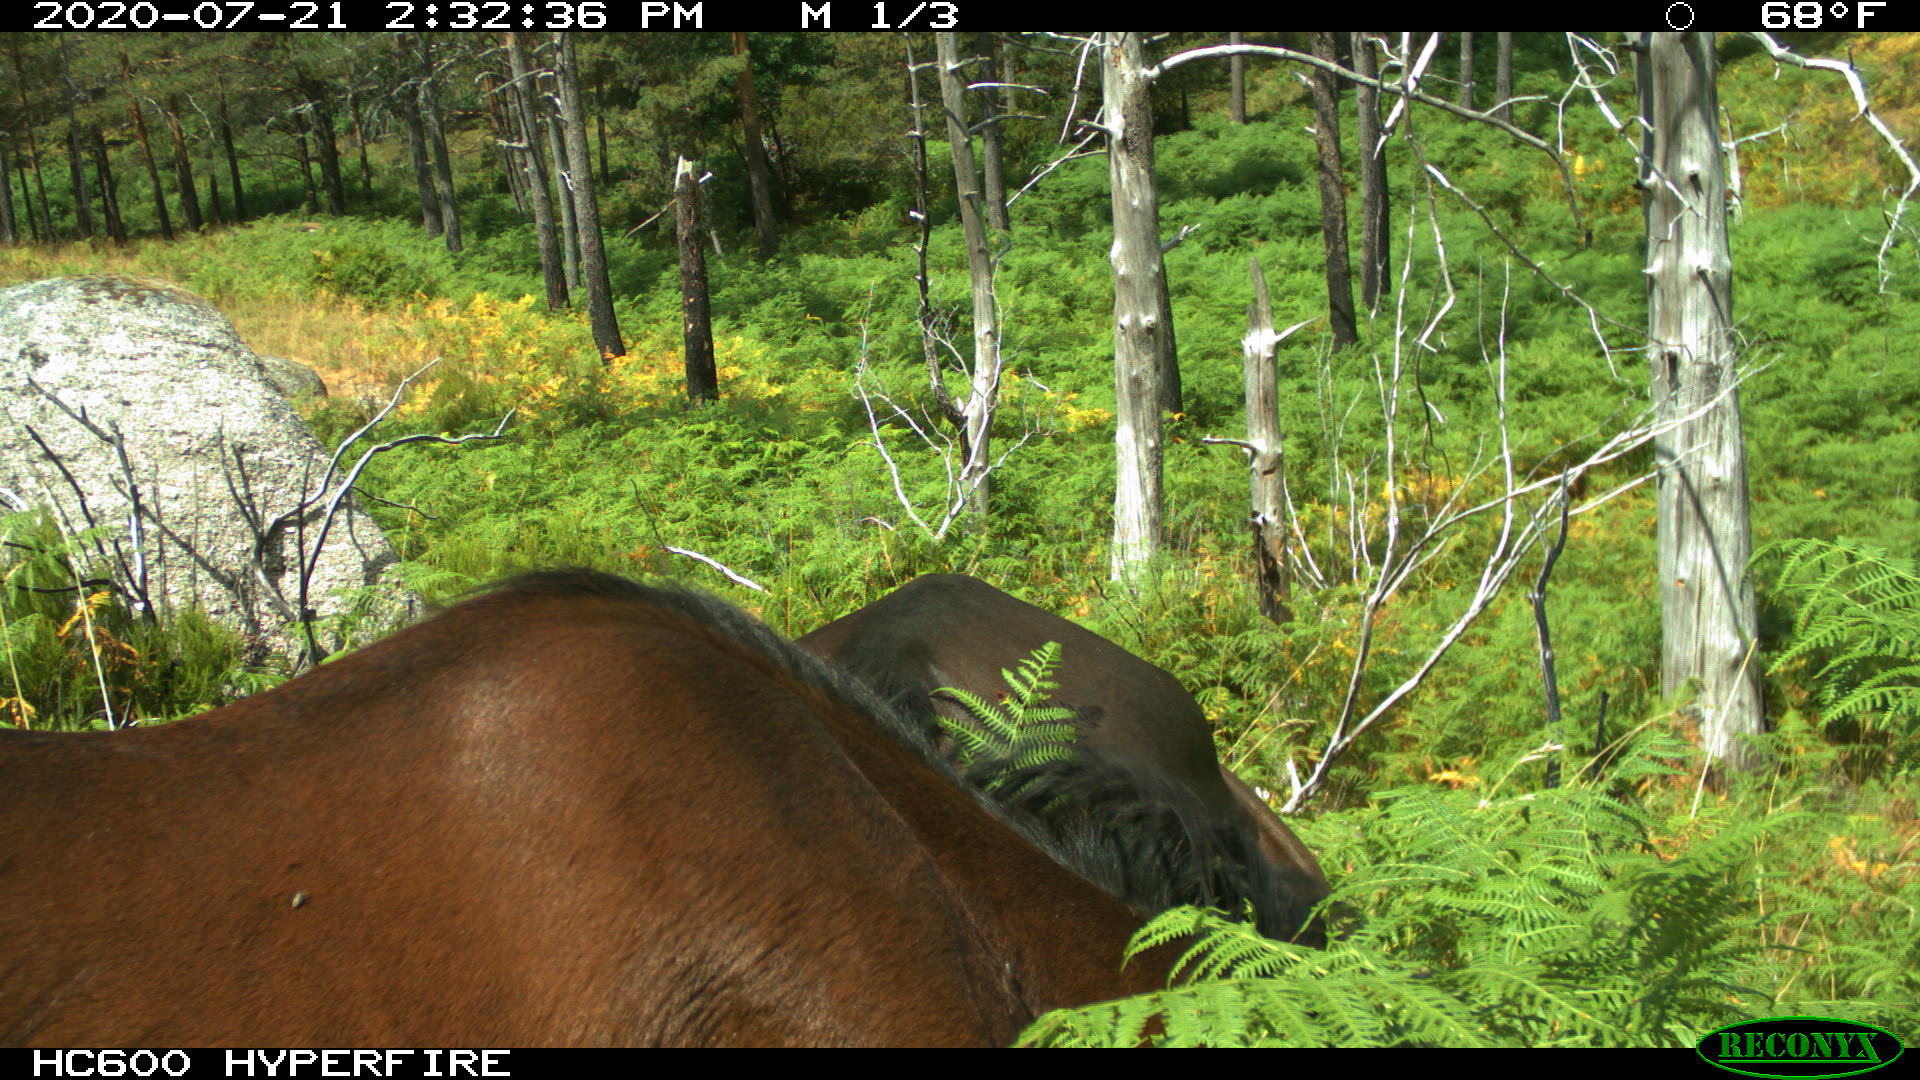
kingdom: Animalia
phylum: Chordata
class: Mammalia
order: Perissodactyla
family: Equidae
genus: Equus
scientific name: Equus caballus
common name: Horse
